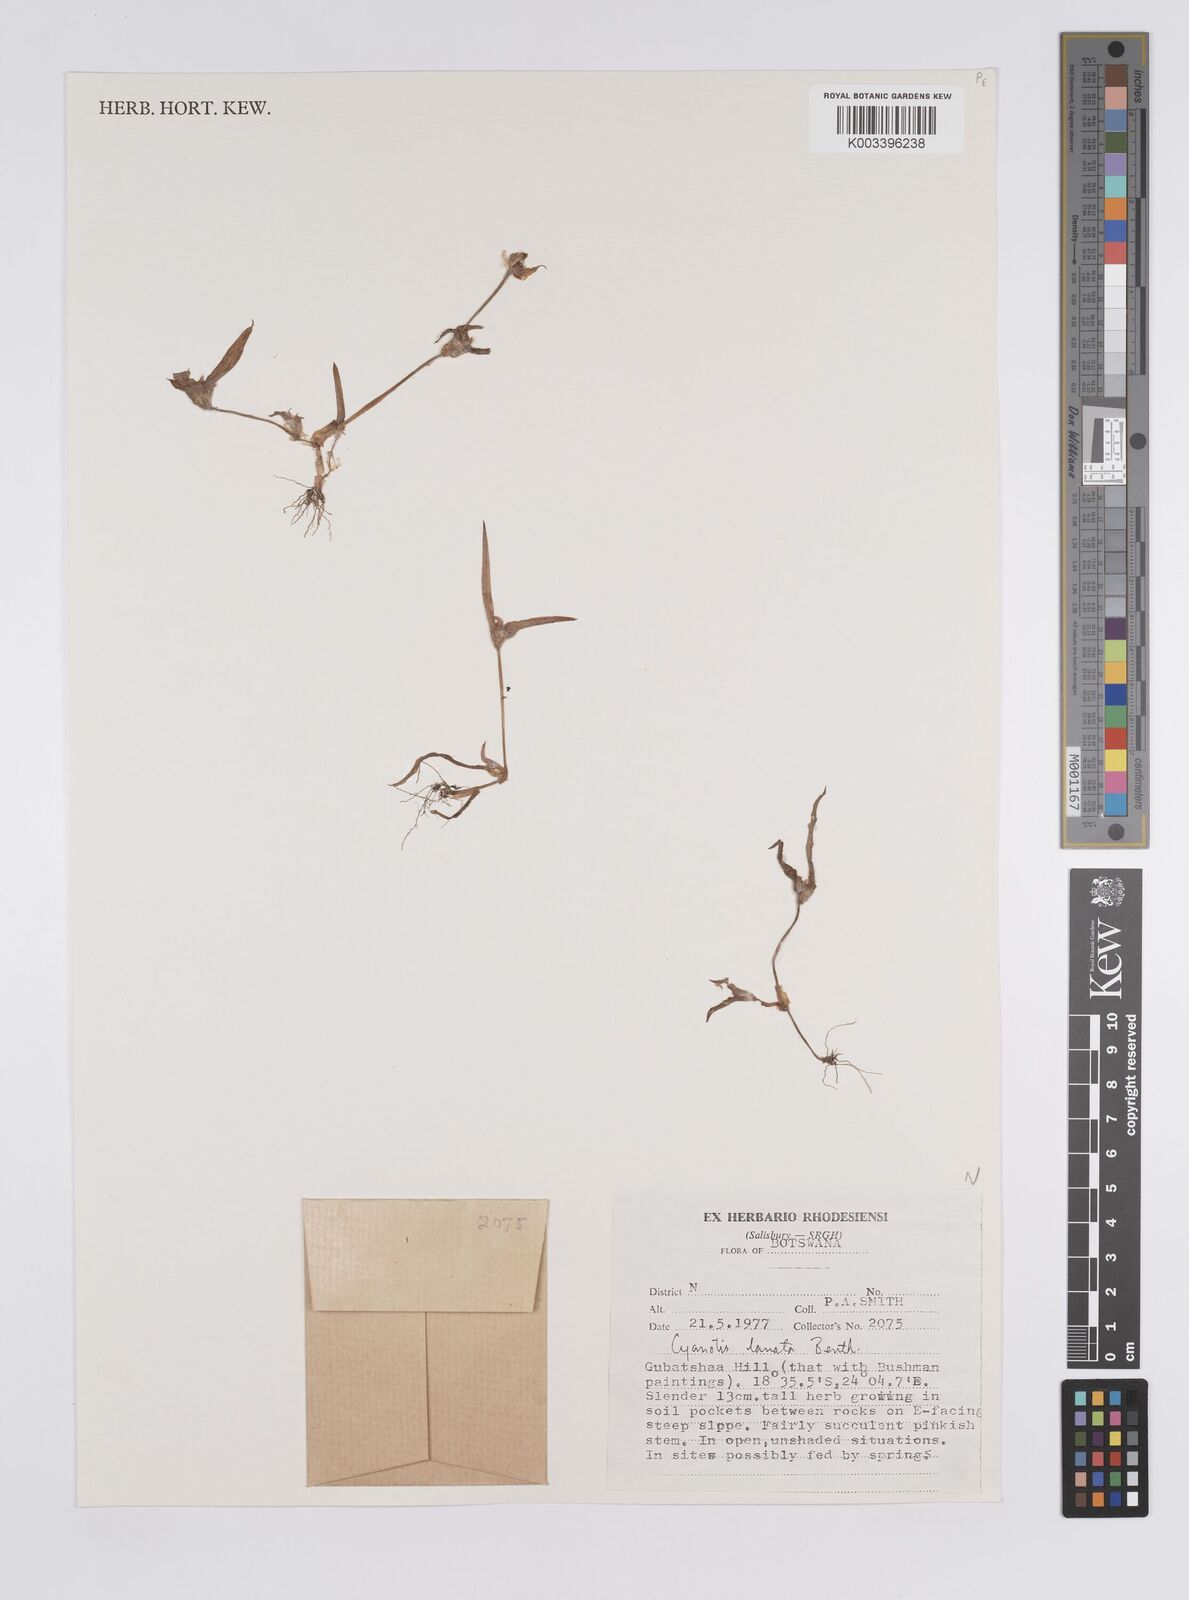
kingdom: Plantae
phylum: Tracheophyta
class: Liliopsida
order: Commelinales
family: Commelinaceae
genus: Cyanotis
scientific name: Cyanotis lanata
